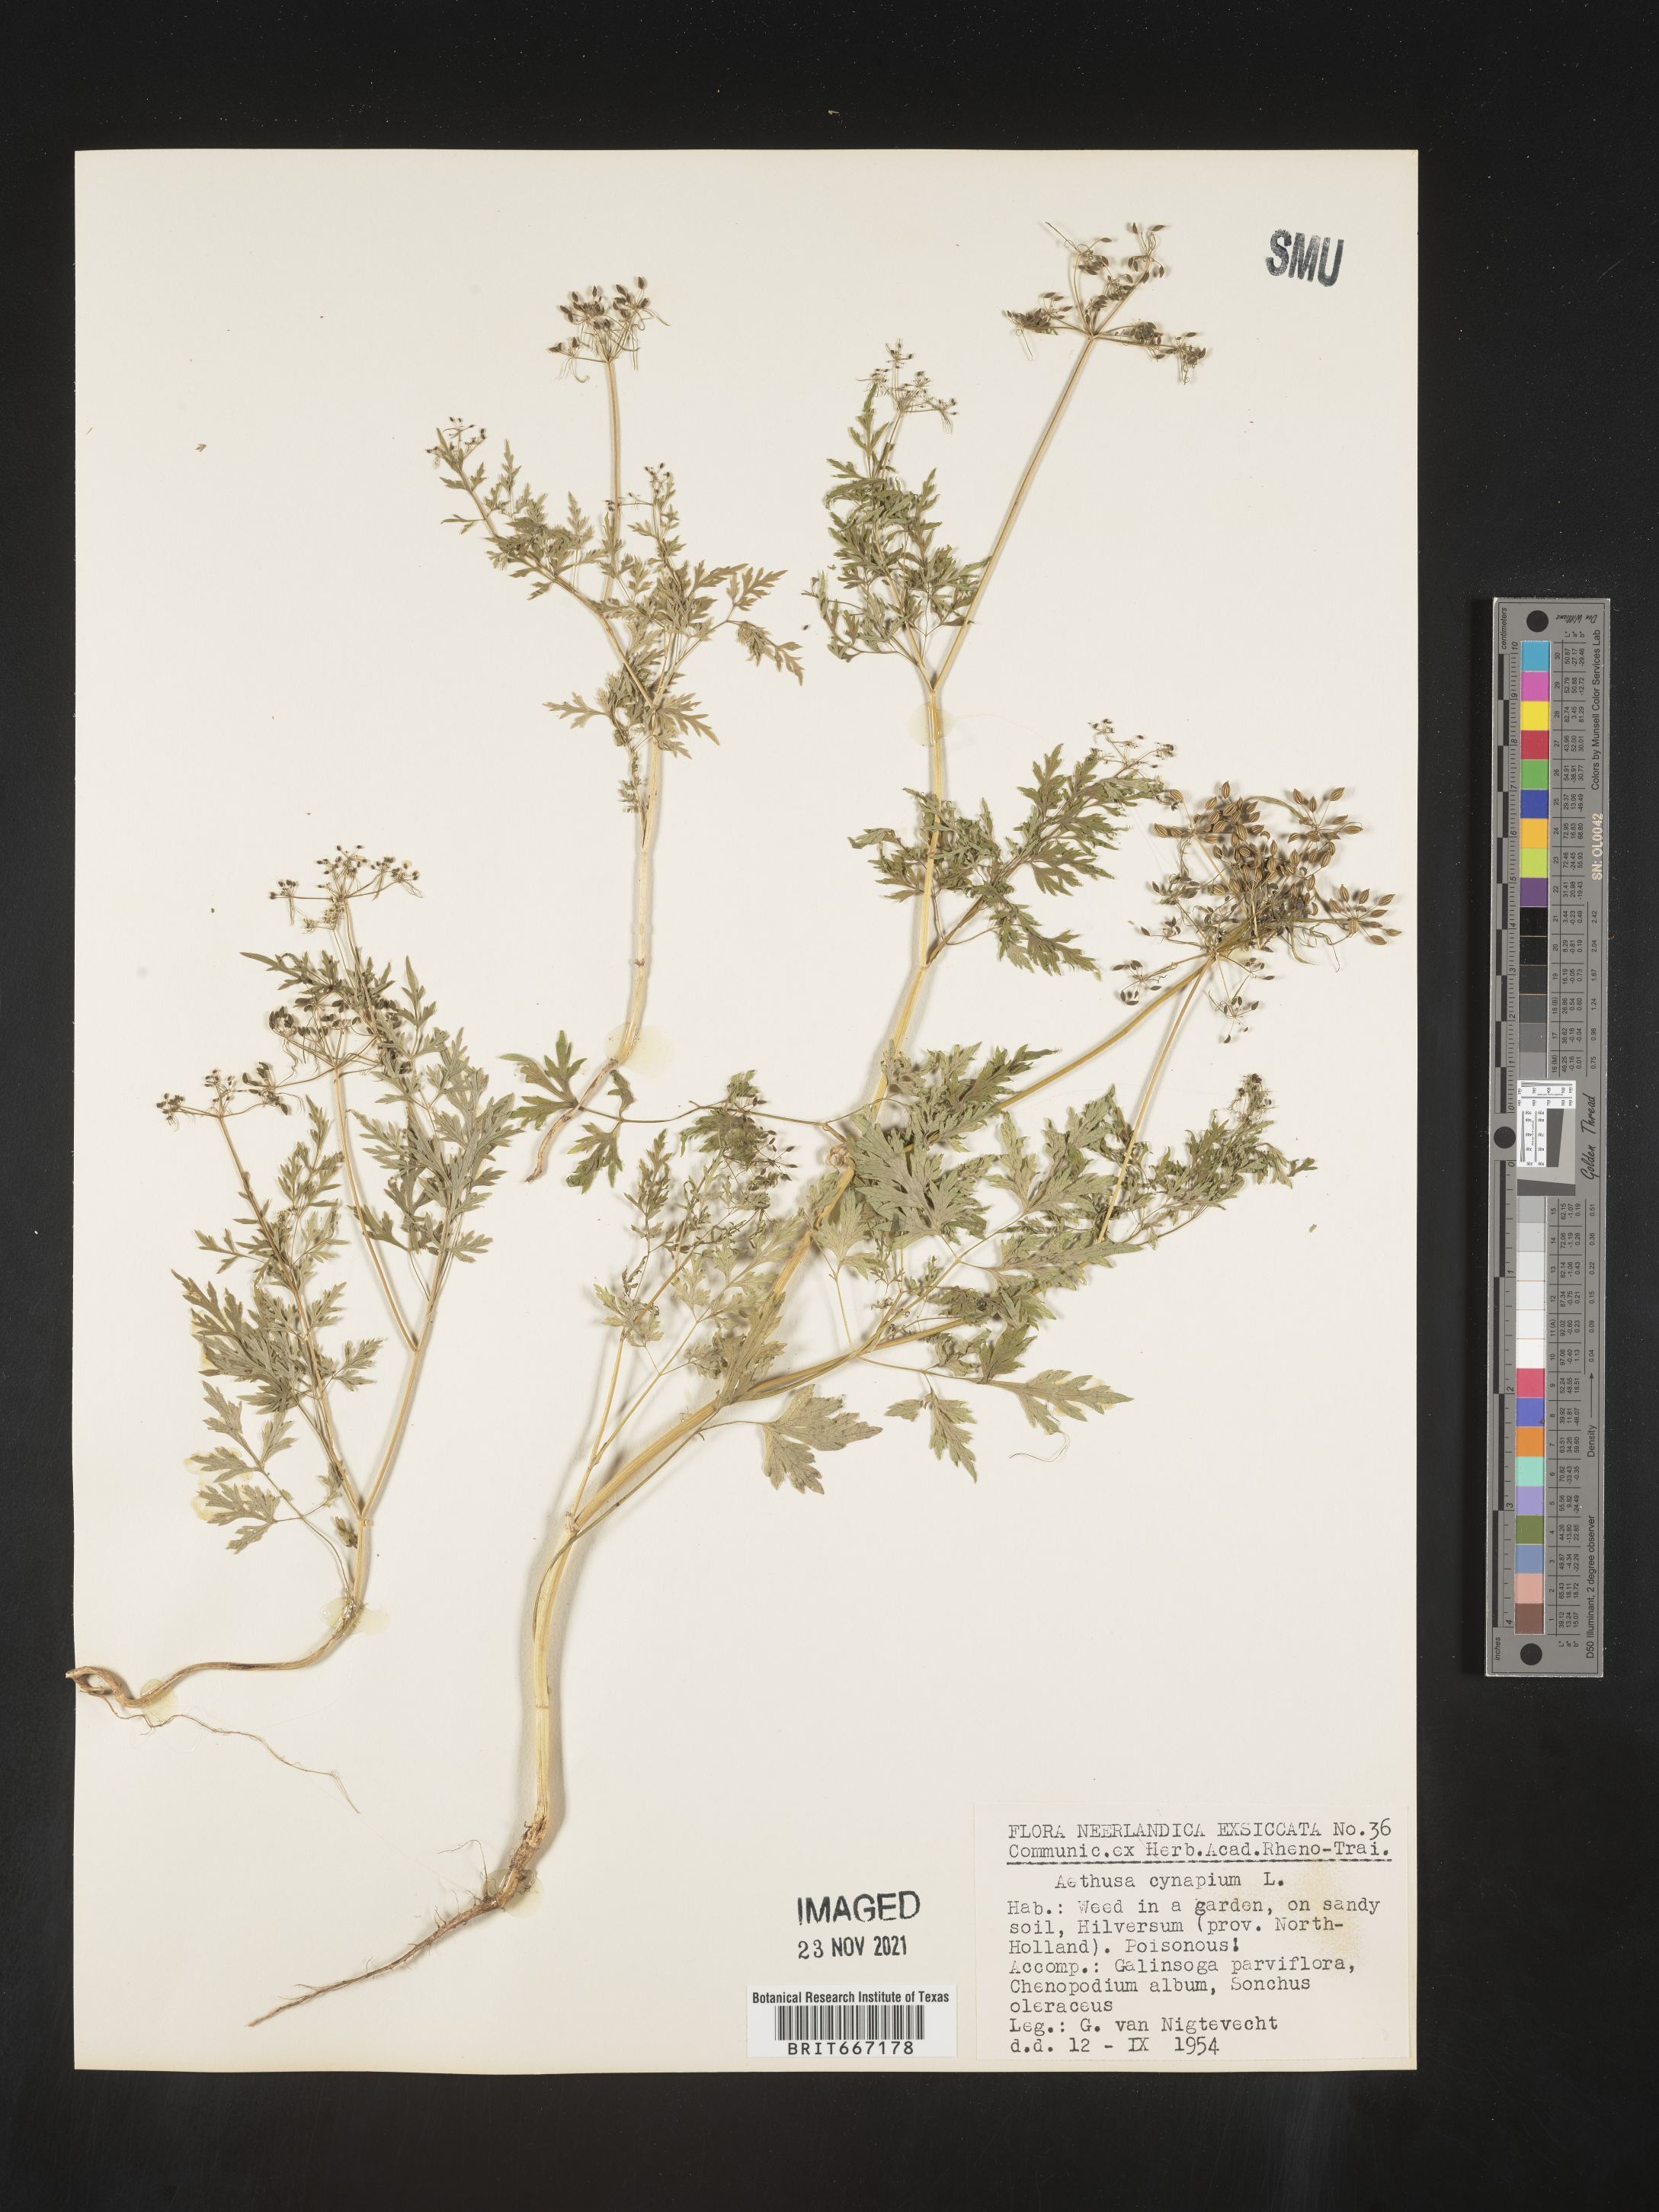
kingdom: Plantae
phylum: Tracheophyta
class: Magnoliopsida
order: Apiales
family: Apiaceae
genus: Aethusa
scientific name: Aethusa
